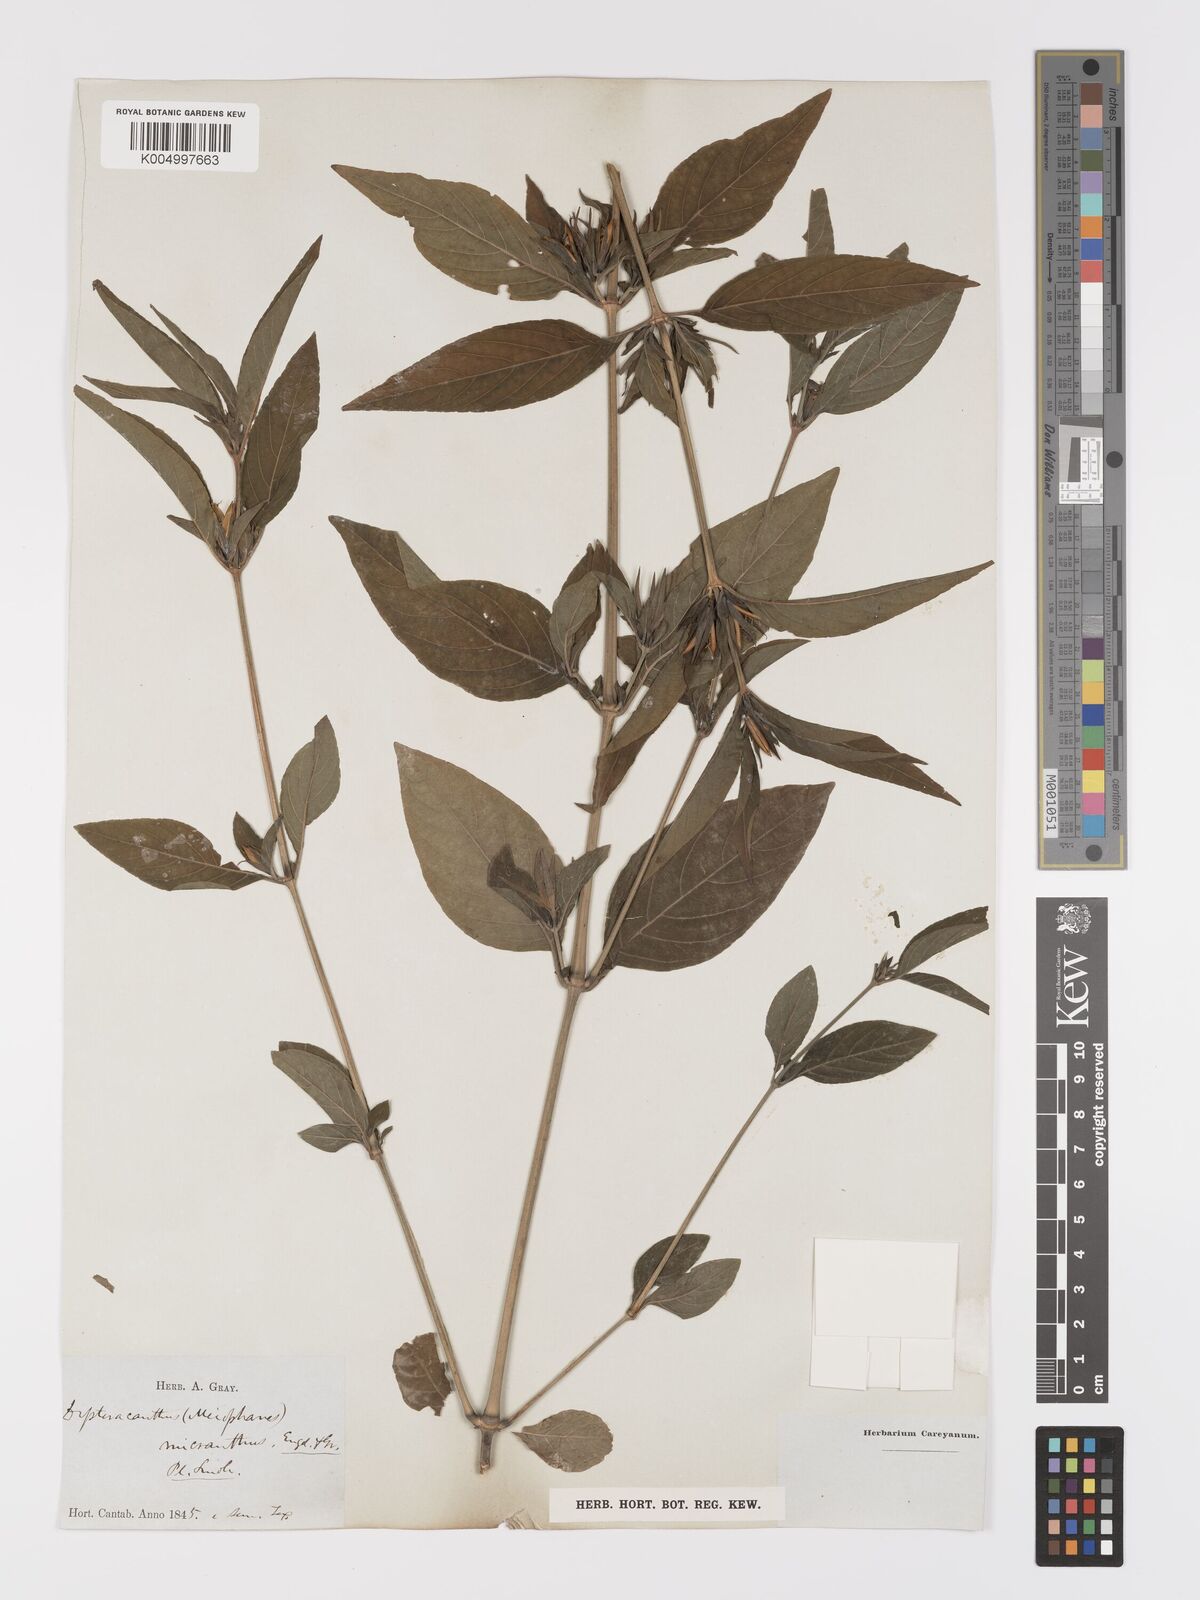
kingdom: Plantae
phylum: Tracheophyta
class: Magnoliopsida
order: Lamiales
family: Acanthaceae
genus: Ruellia
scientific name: Ruellia strepens
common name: Limestone wild petunia
